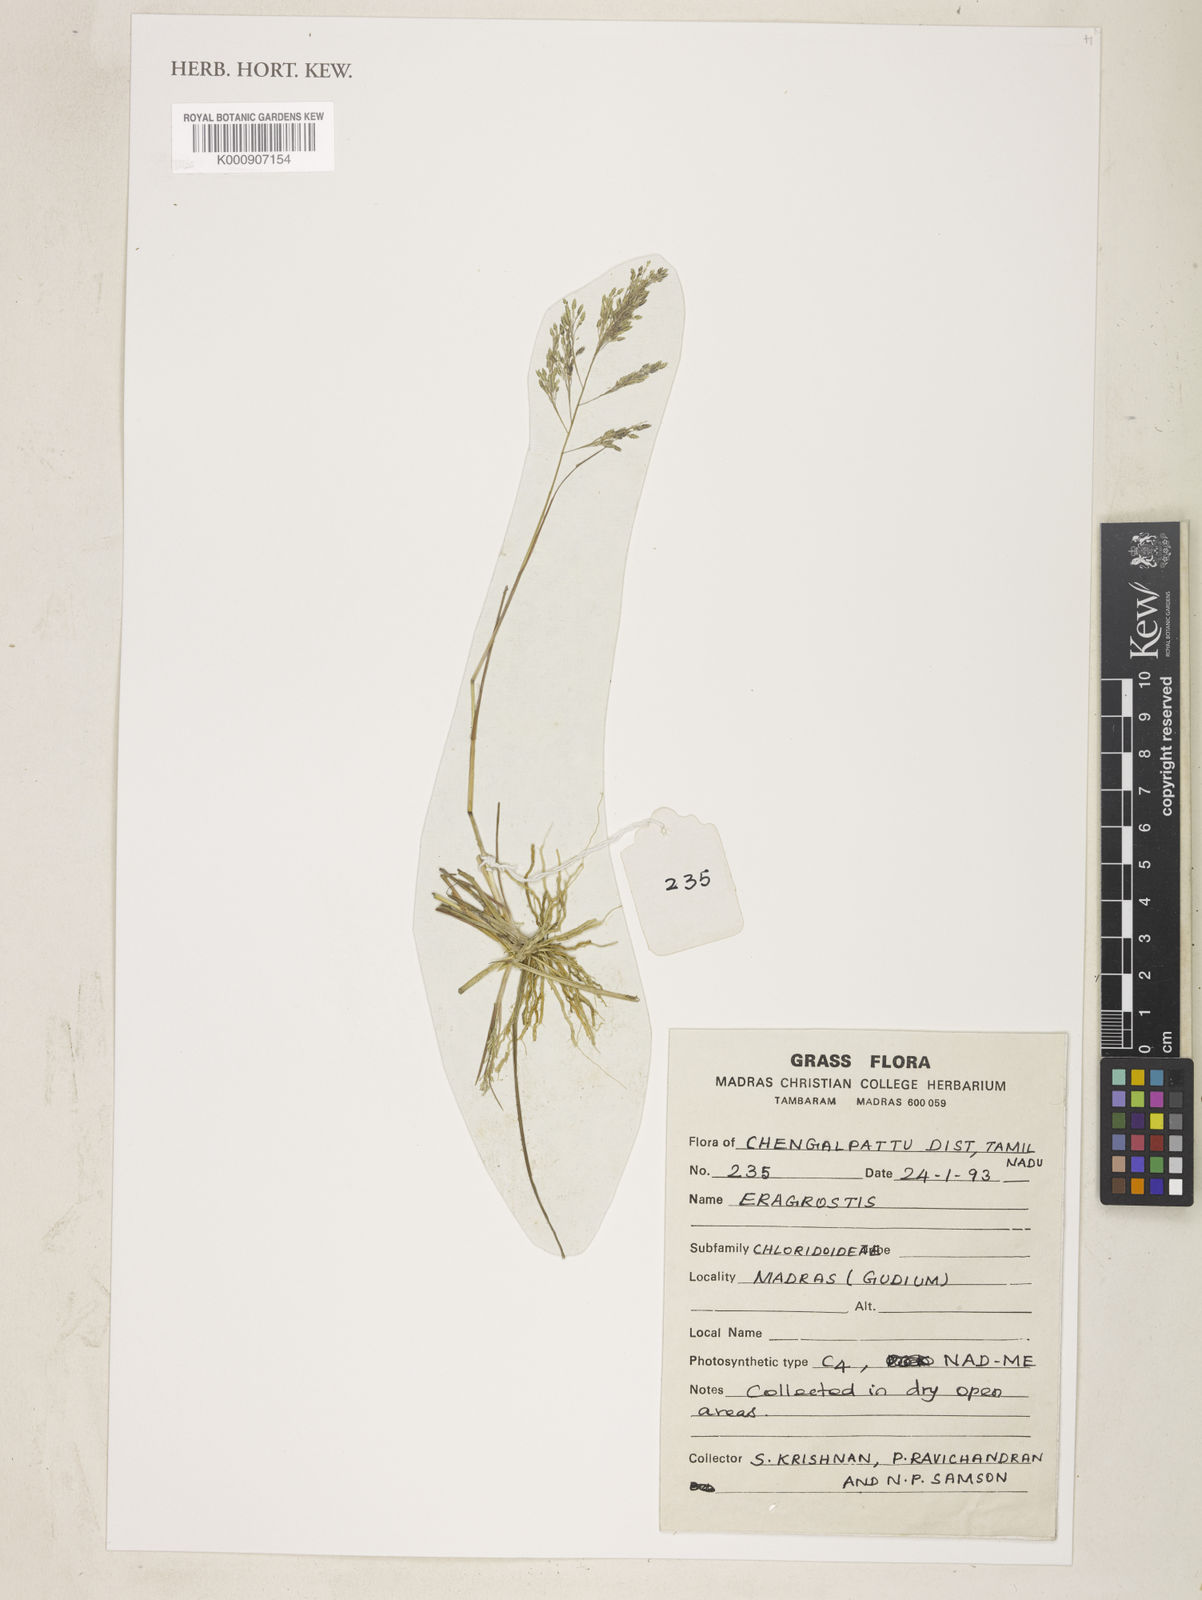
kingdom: Plantae
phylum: Tracheophyta
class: Liliopsida
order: Poales
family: Poaceae
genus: Eragrostis
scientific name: Eragrostis gangetica
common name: Slimflower lovegrass
